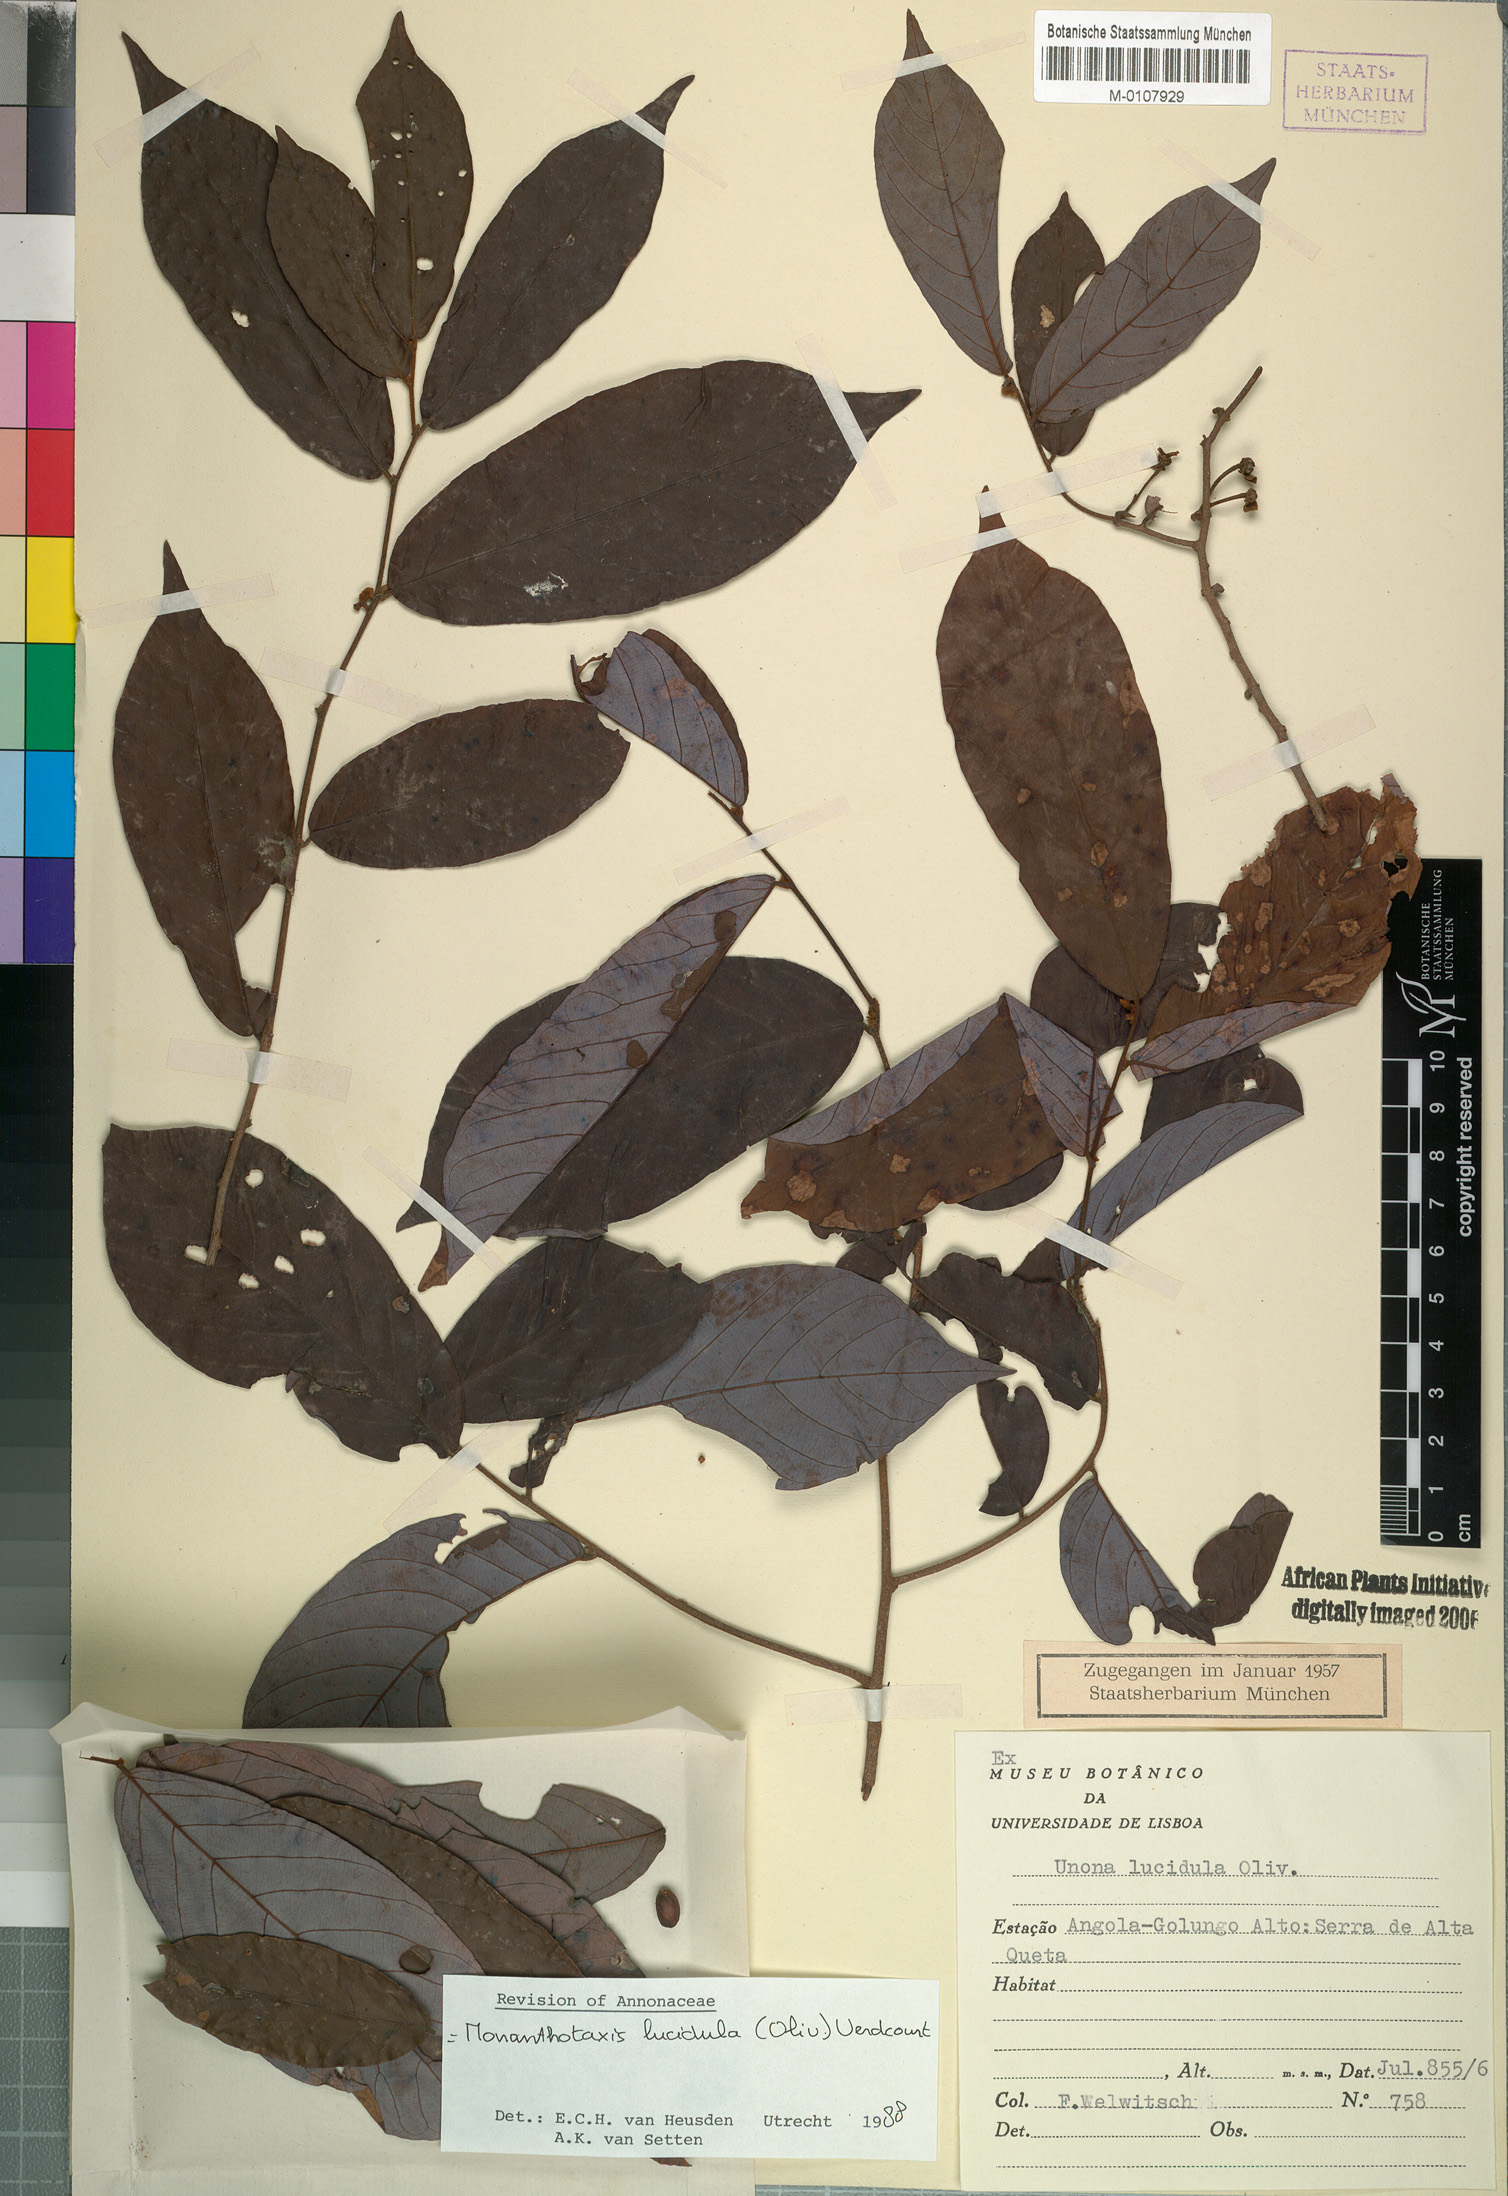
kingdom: Plantae
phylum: Tracheophyta
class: Magnoliopsida
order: Magnoliales
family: Annonaceae
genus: Monanthotaxis
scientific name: Monanthotaxis lucidula
